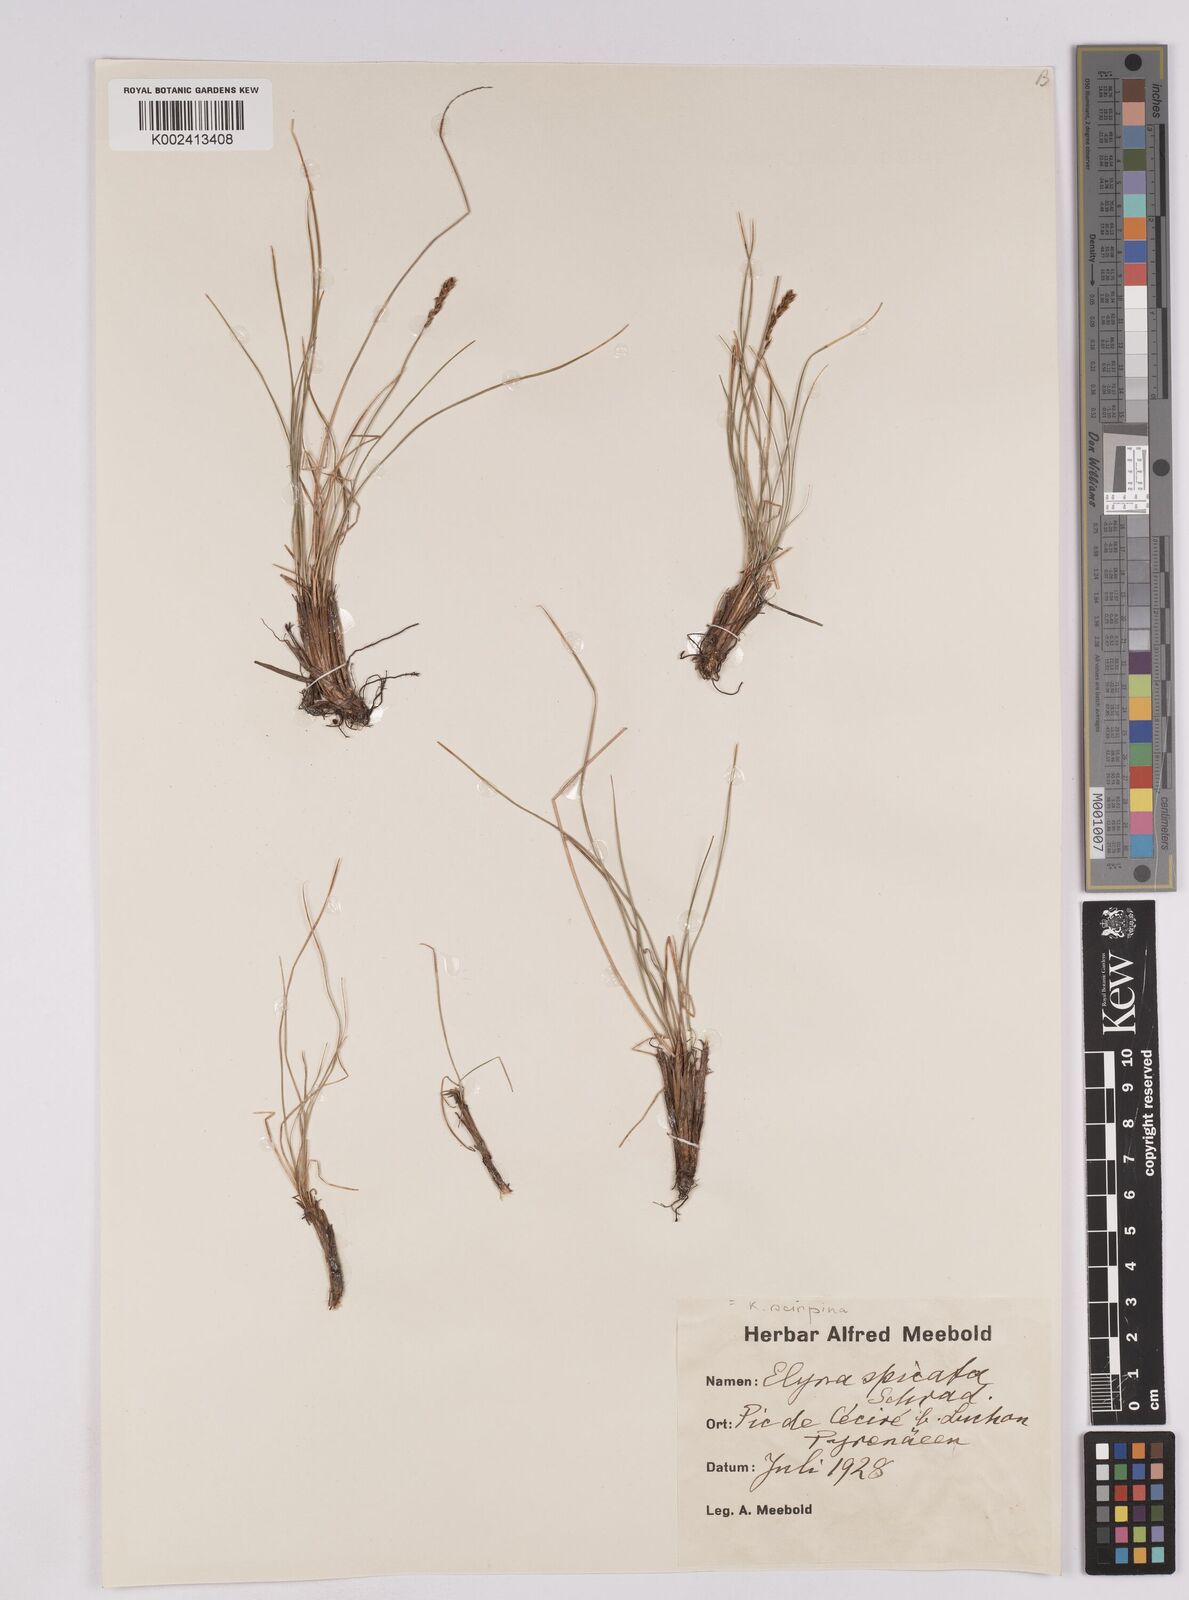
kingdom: Plantae
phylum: Tracheophyta
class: Liliopsida
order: Poales
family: Cyperaceae
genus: Carex
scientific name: Carex myosuroides
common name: Bellard's bog sedge
